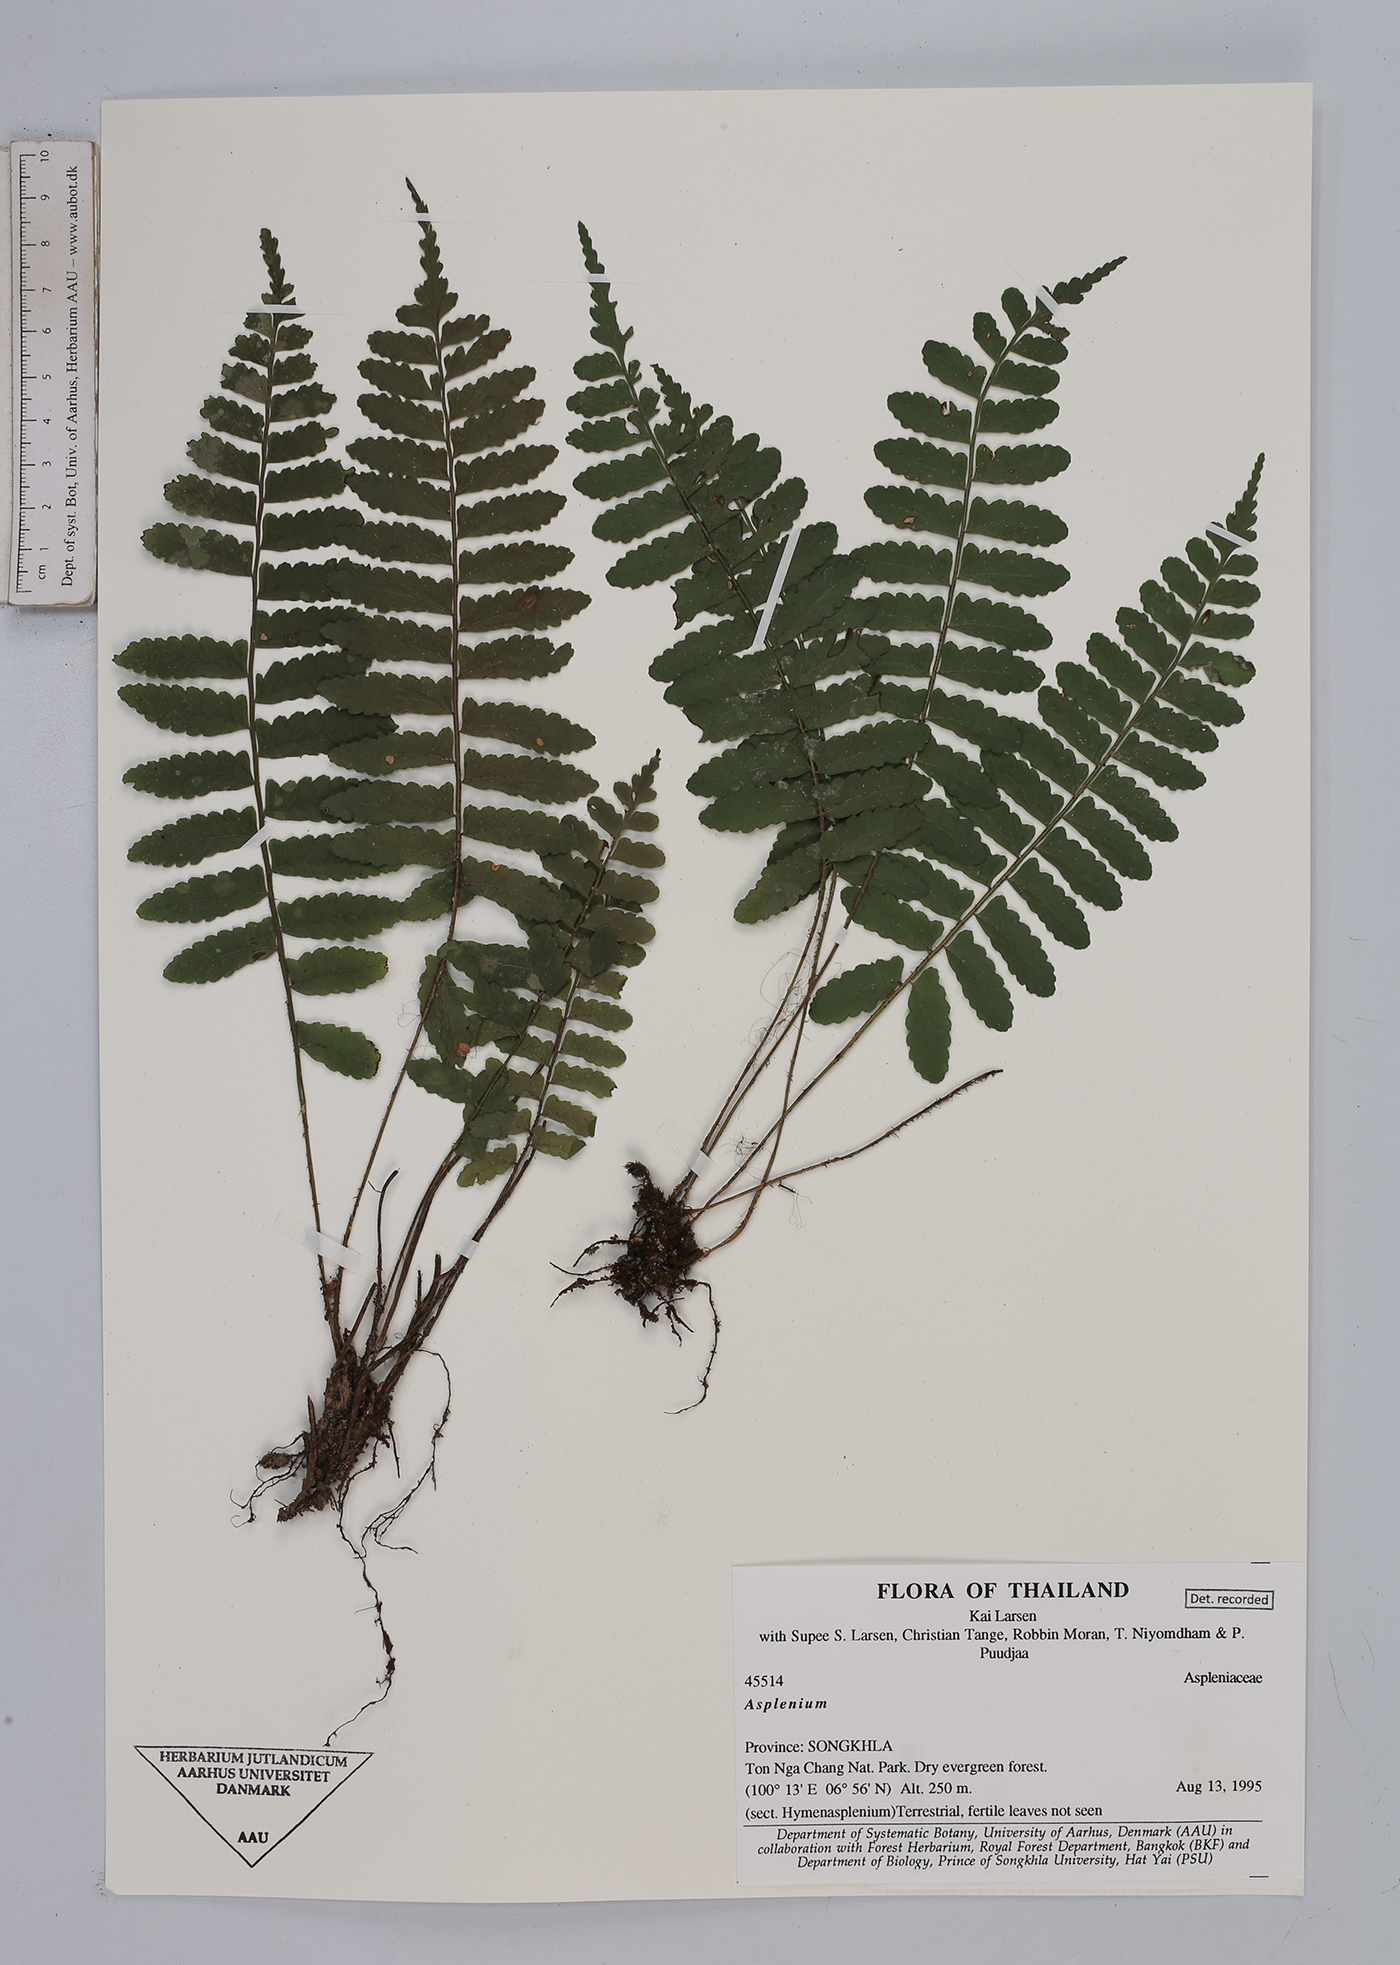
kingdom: Plantae
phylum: Tracheophyta
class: Polypodiopsida
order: Polypodiales
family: Aspleniaceae
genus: Asplenium
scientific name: Asplenium
